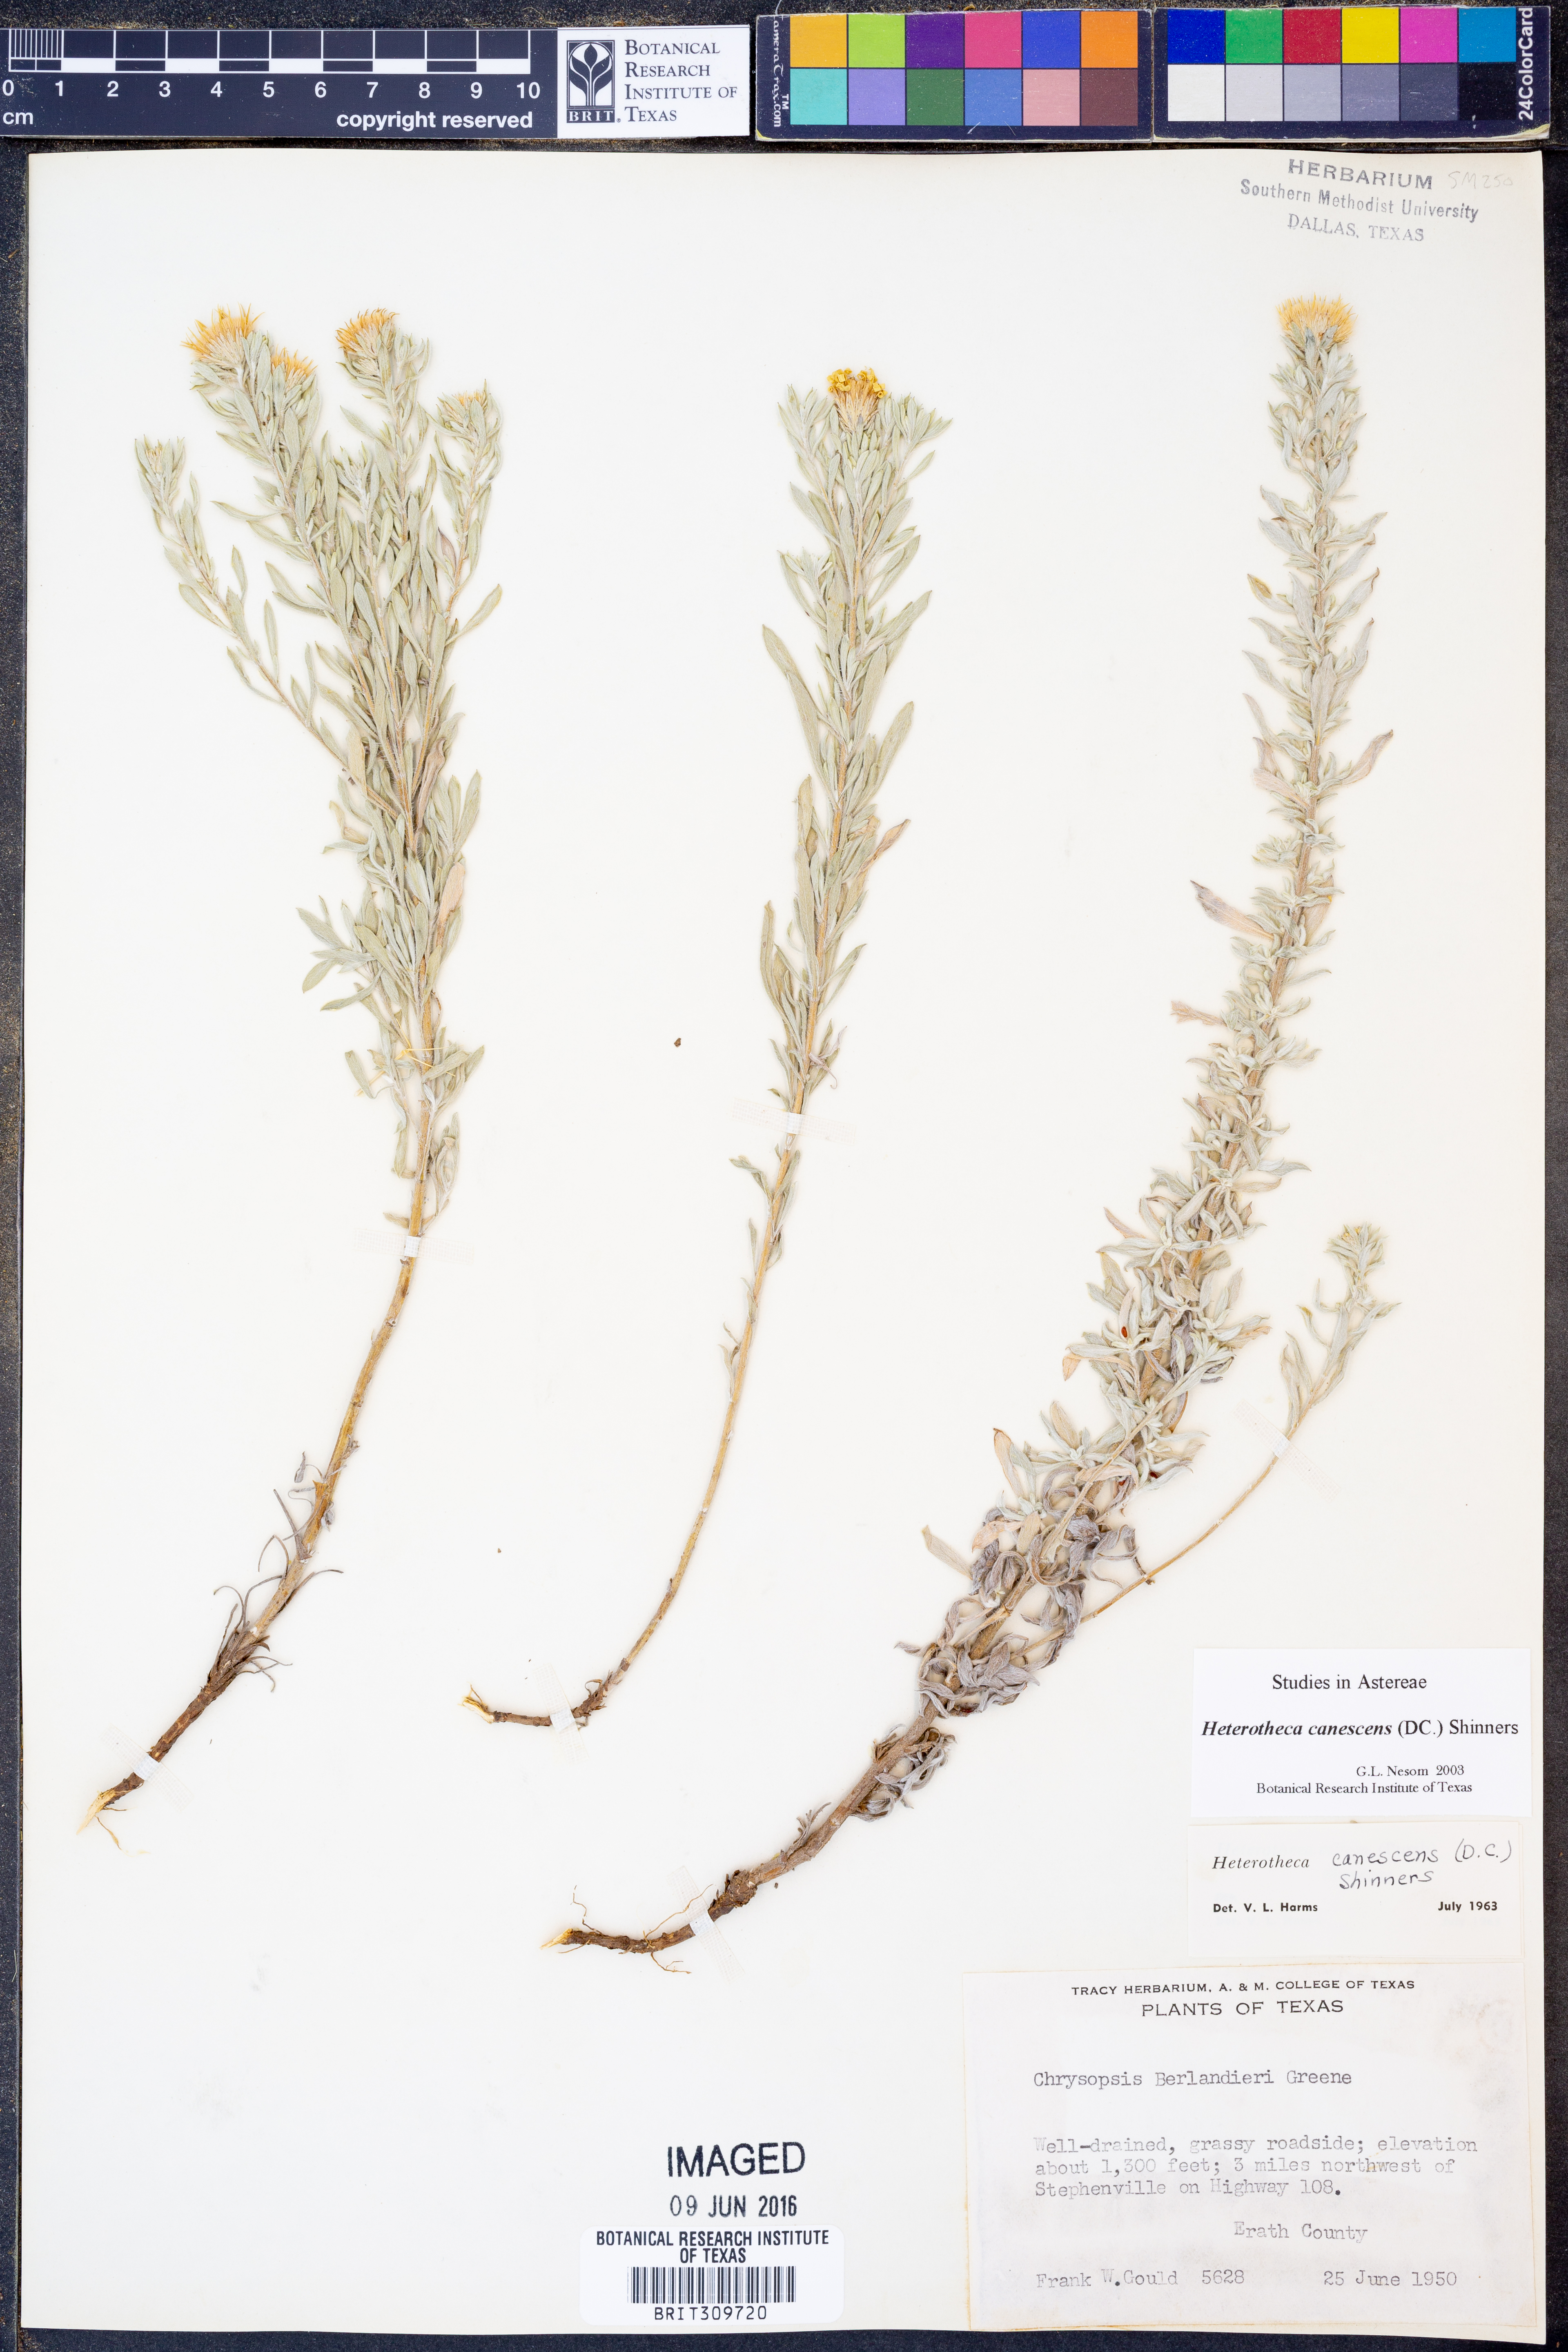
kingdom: Plantae
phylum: Tracheophyta
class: Magnoliopsida
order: Asterales
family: Asteraceae
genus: Heterotheca
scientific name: Heterotheca canescens
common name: Hoary golden-aster
